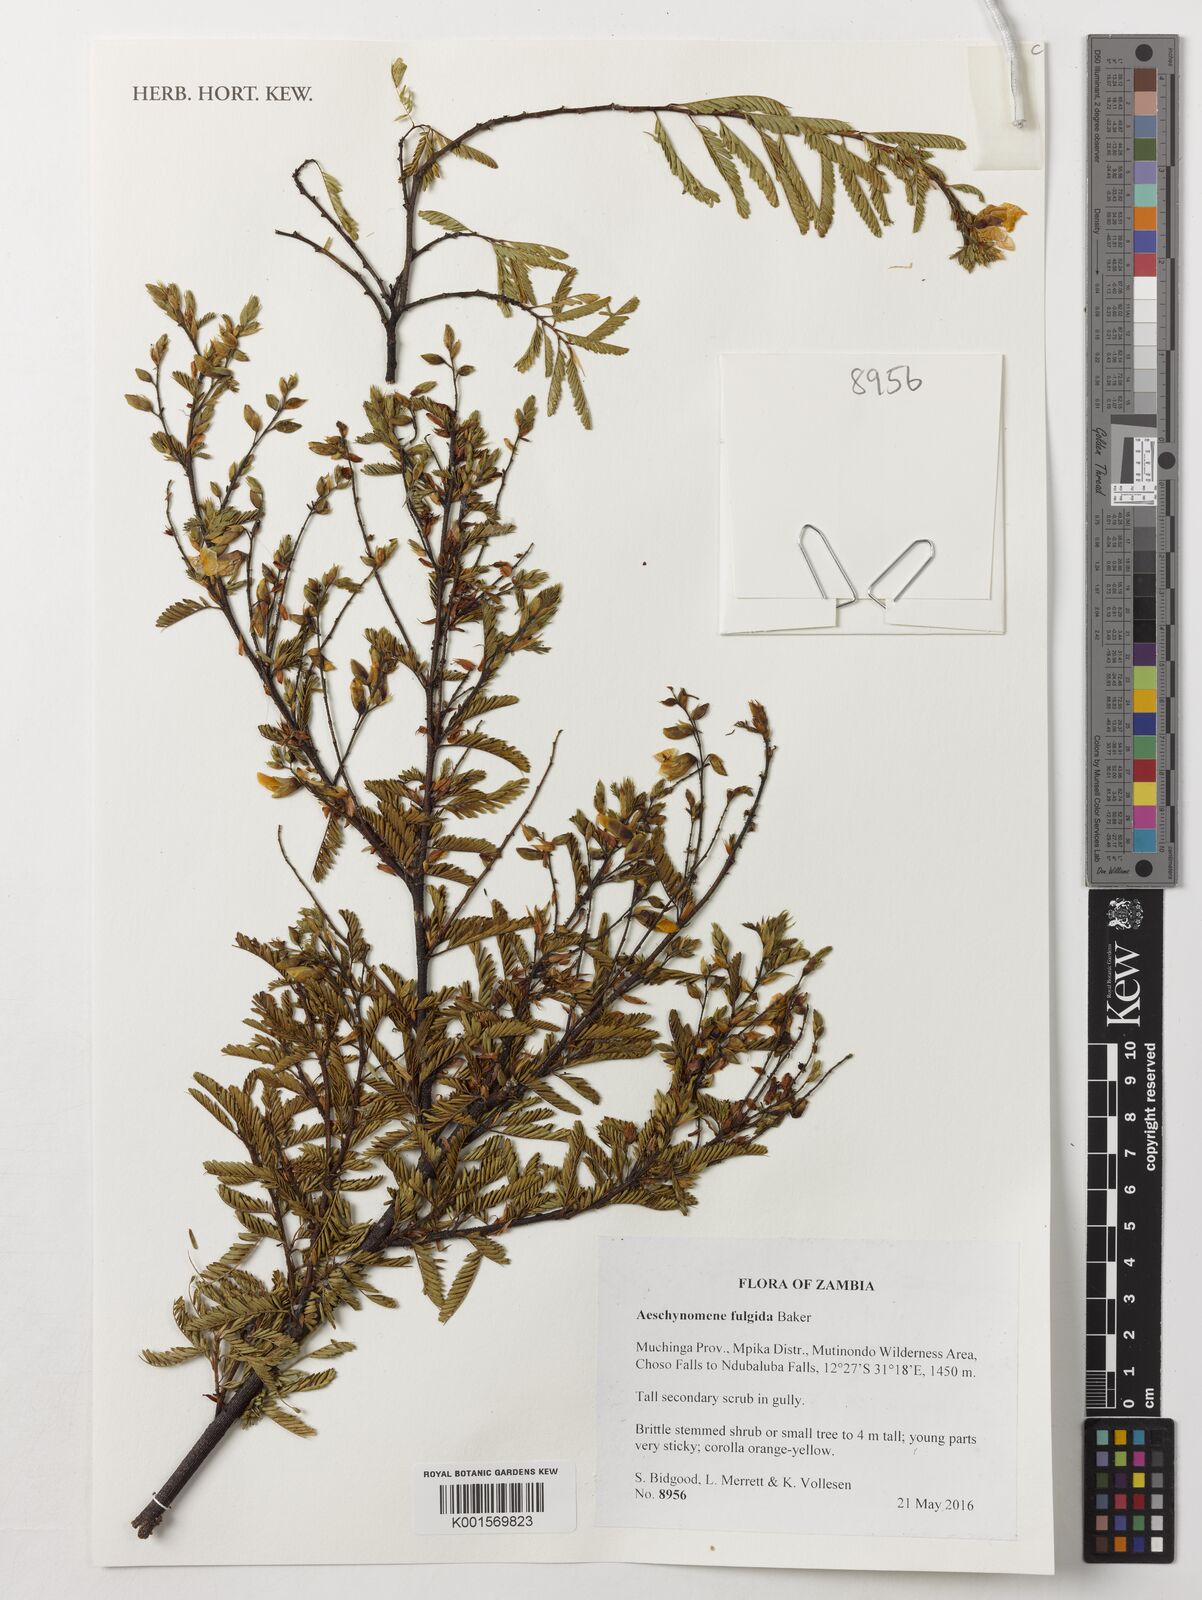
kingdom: Plantae
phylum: Tracheophyta
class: Magnoliopsida
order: Fabales
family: Fabaceae
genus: Aeschynomene
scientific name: Aeschynomene fulgida
